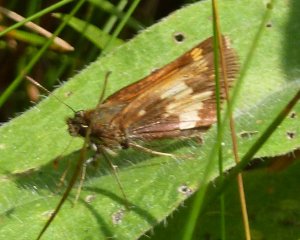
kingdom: Animalia
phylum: Arthropoda
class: Insecta
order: Lepidoptera
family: Hesperiidae
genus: Lon
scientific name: Lon hobomok
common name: Hobomok Skipper
